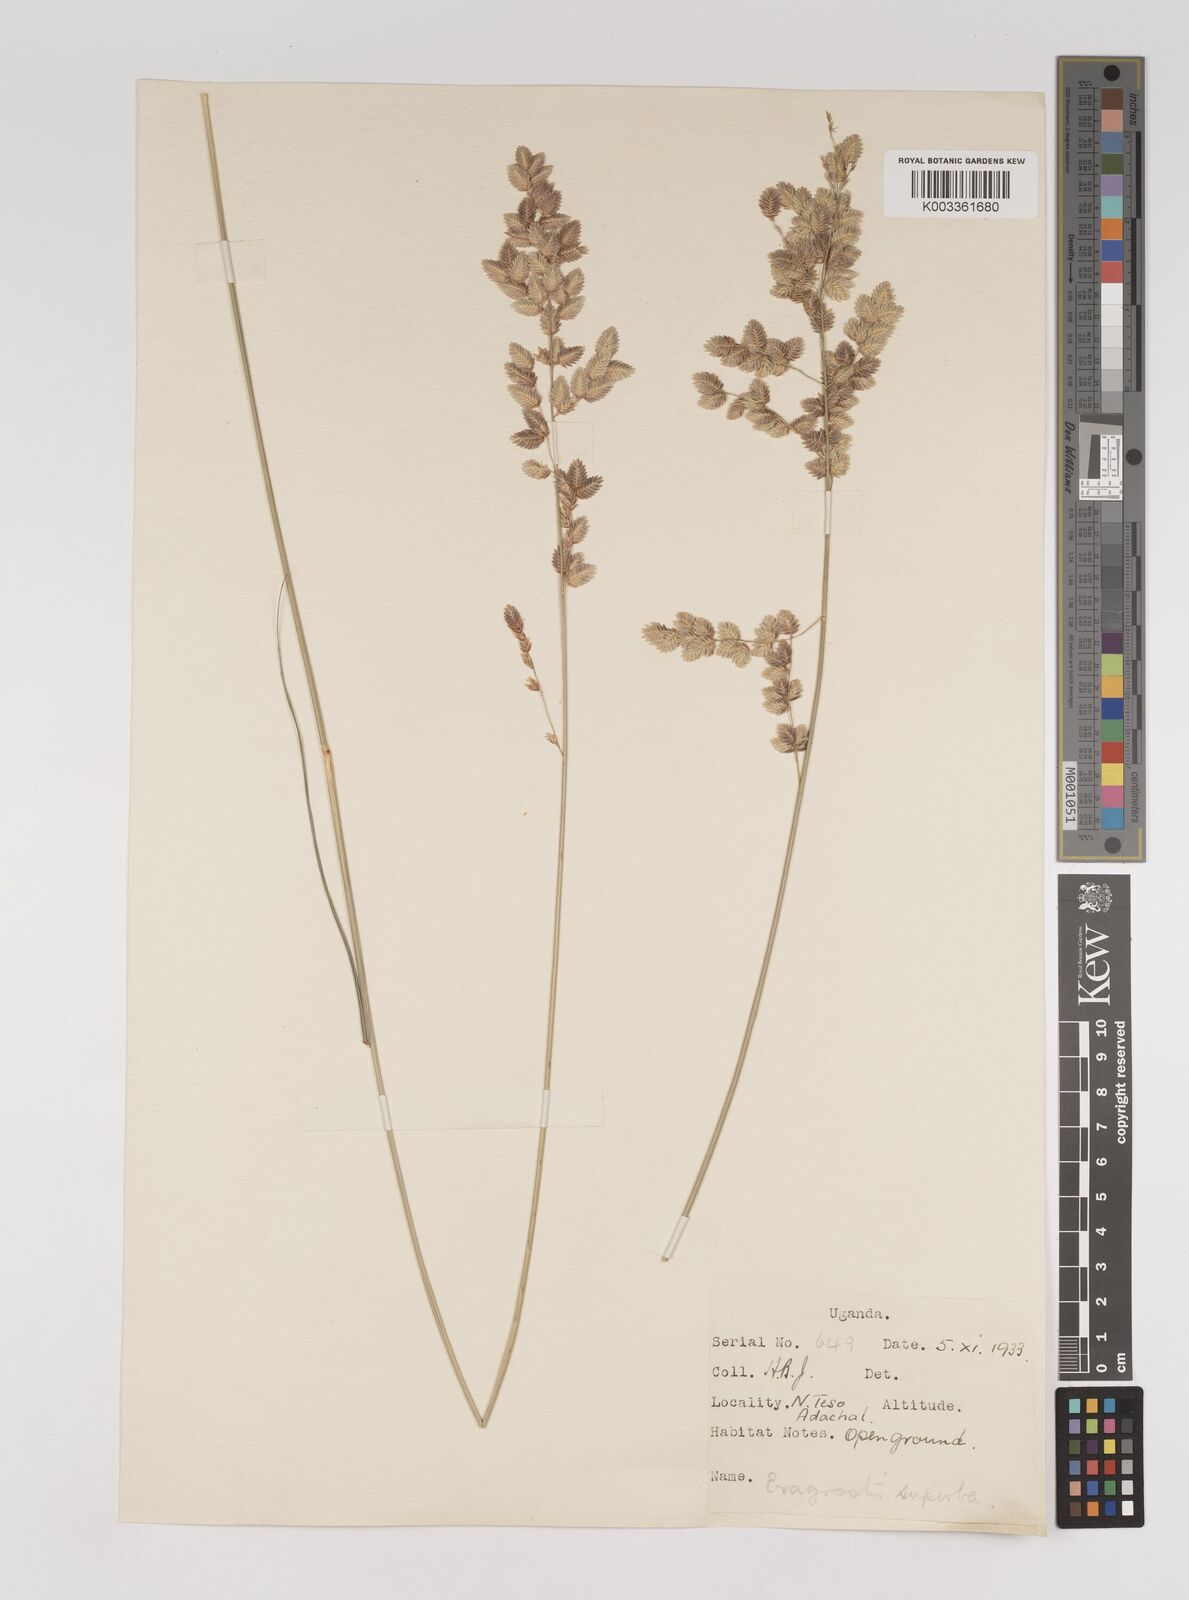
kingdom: Plantae
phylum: Tracheophyta
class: Liliopsida
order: Poales
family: Poaceae
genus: Eragrostis
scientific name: Eragrostis superba
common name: Wilman lovegrass
